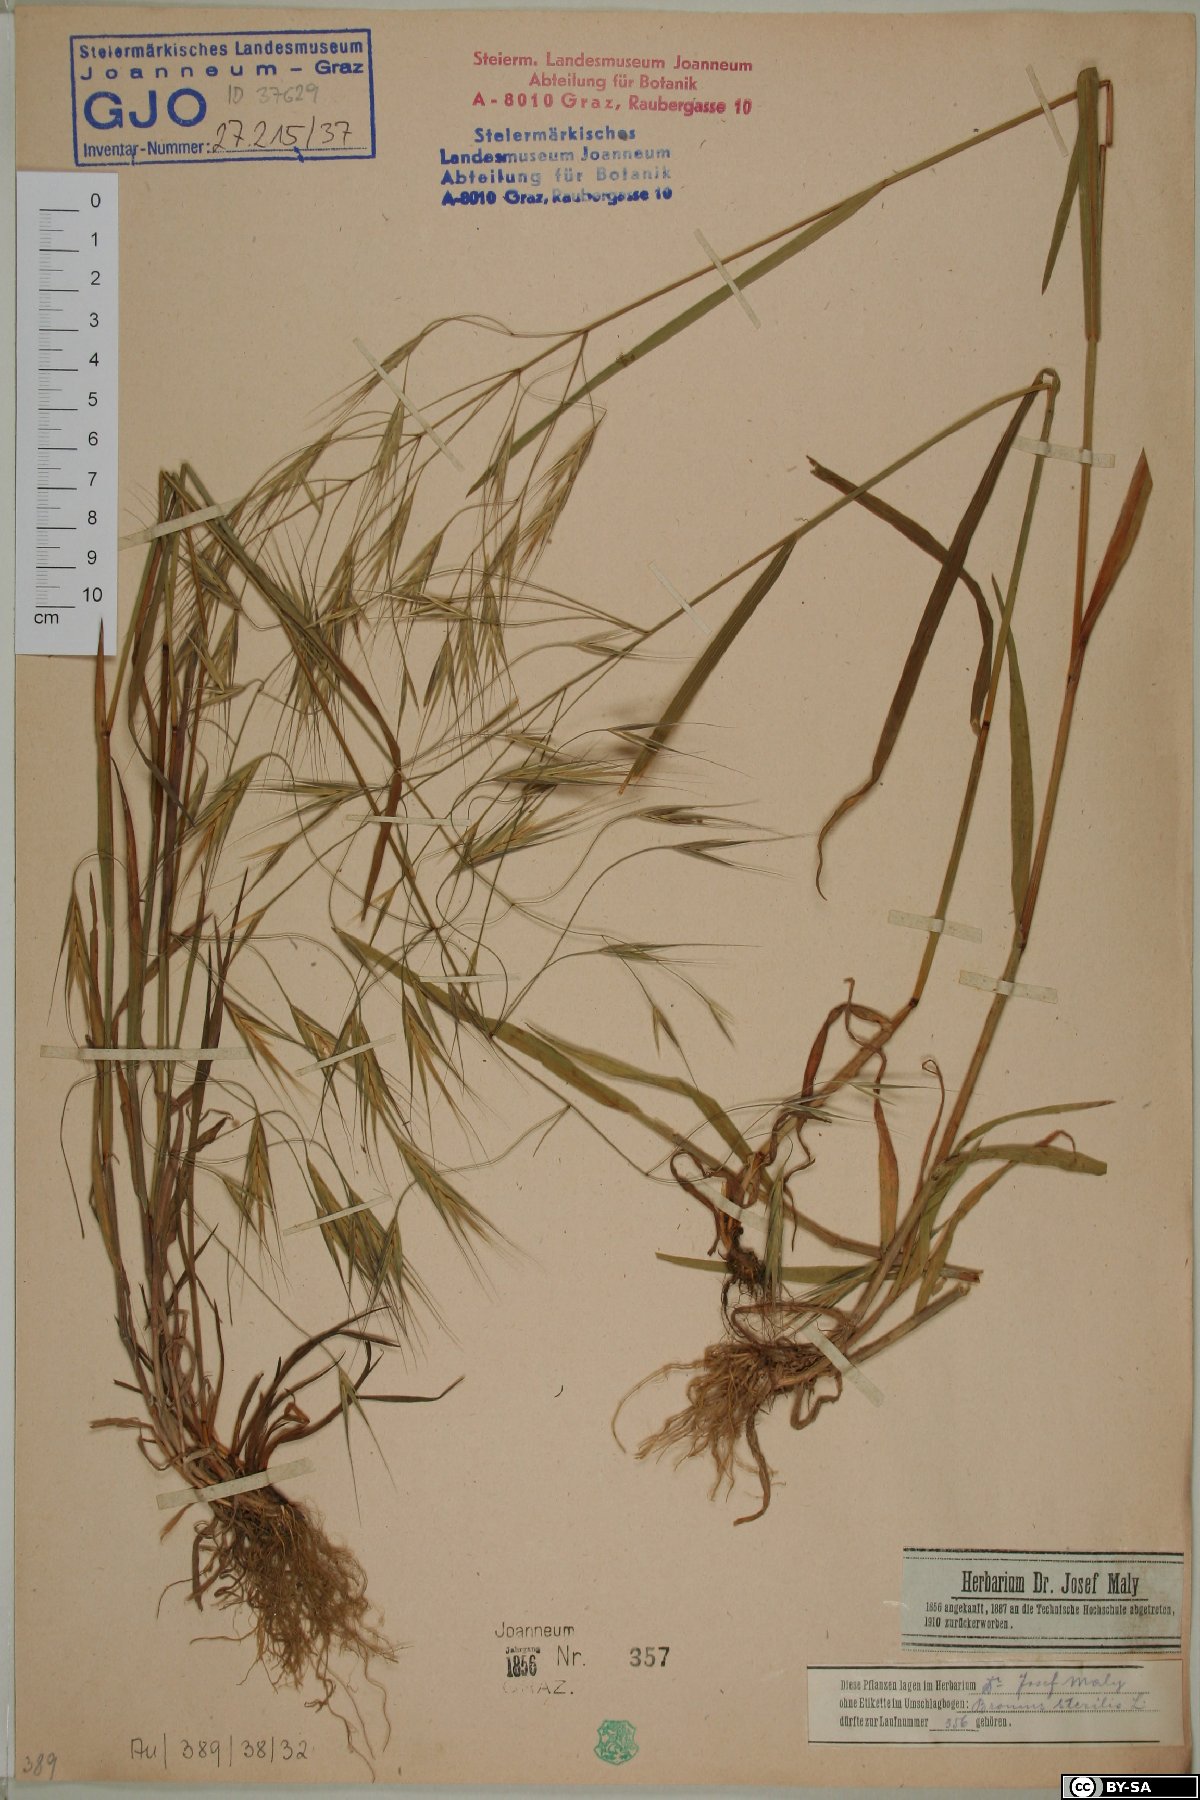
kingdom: Plantae
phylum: Tracheophyta
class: Liliopsida
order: Poales
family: Poaceae
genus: Bromus
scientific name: Bromus sterilis
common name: Poverty brome
